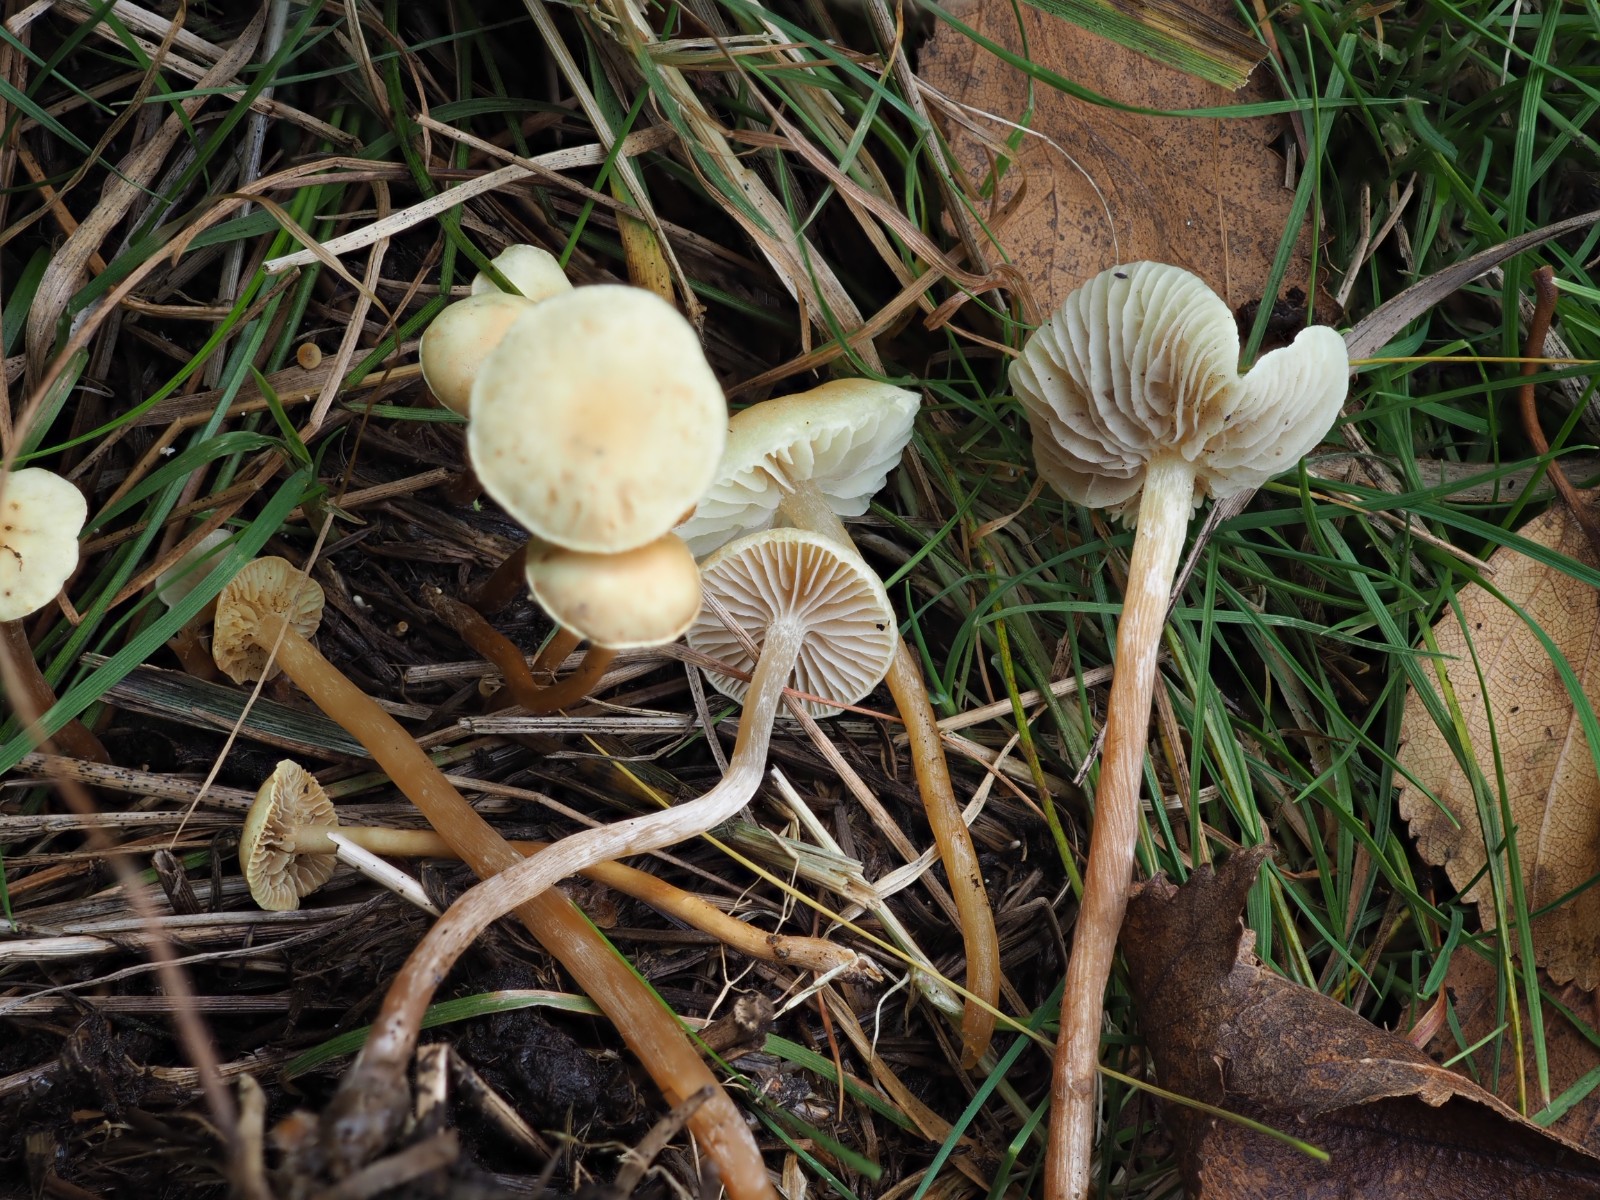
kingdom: Fungi
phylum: Basidiomycota
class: Agaricomycetes
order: Agaricales
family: Strophariaceae
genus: Hypholoma
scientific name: Hypholoma elongatum
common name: slank svovlhat
